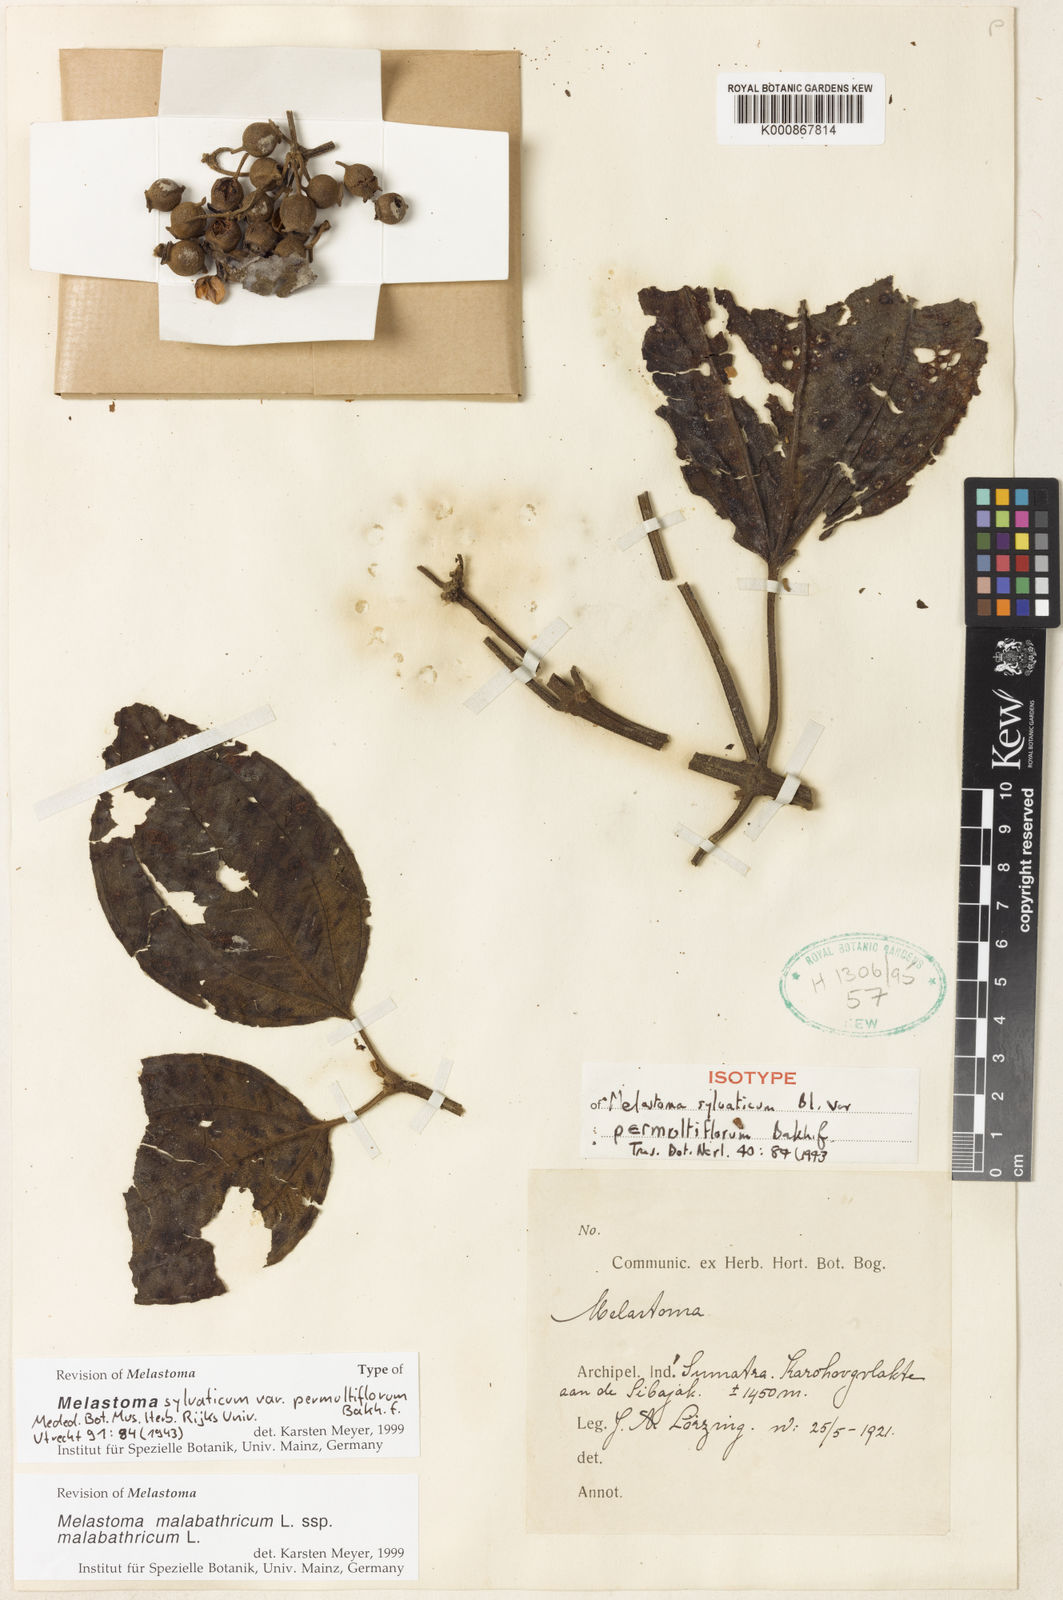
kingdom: Plantae
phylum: Tracheophyta
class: Magnoliopsida
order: Myrtales
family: Melastomataceae
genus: Melastoma
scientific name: Melastoma malabathricum
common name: Indian-rhododendron
